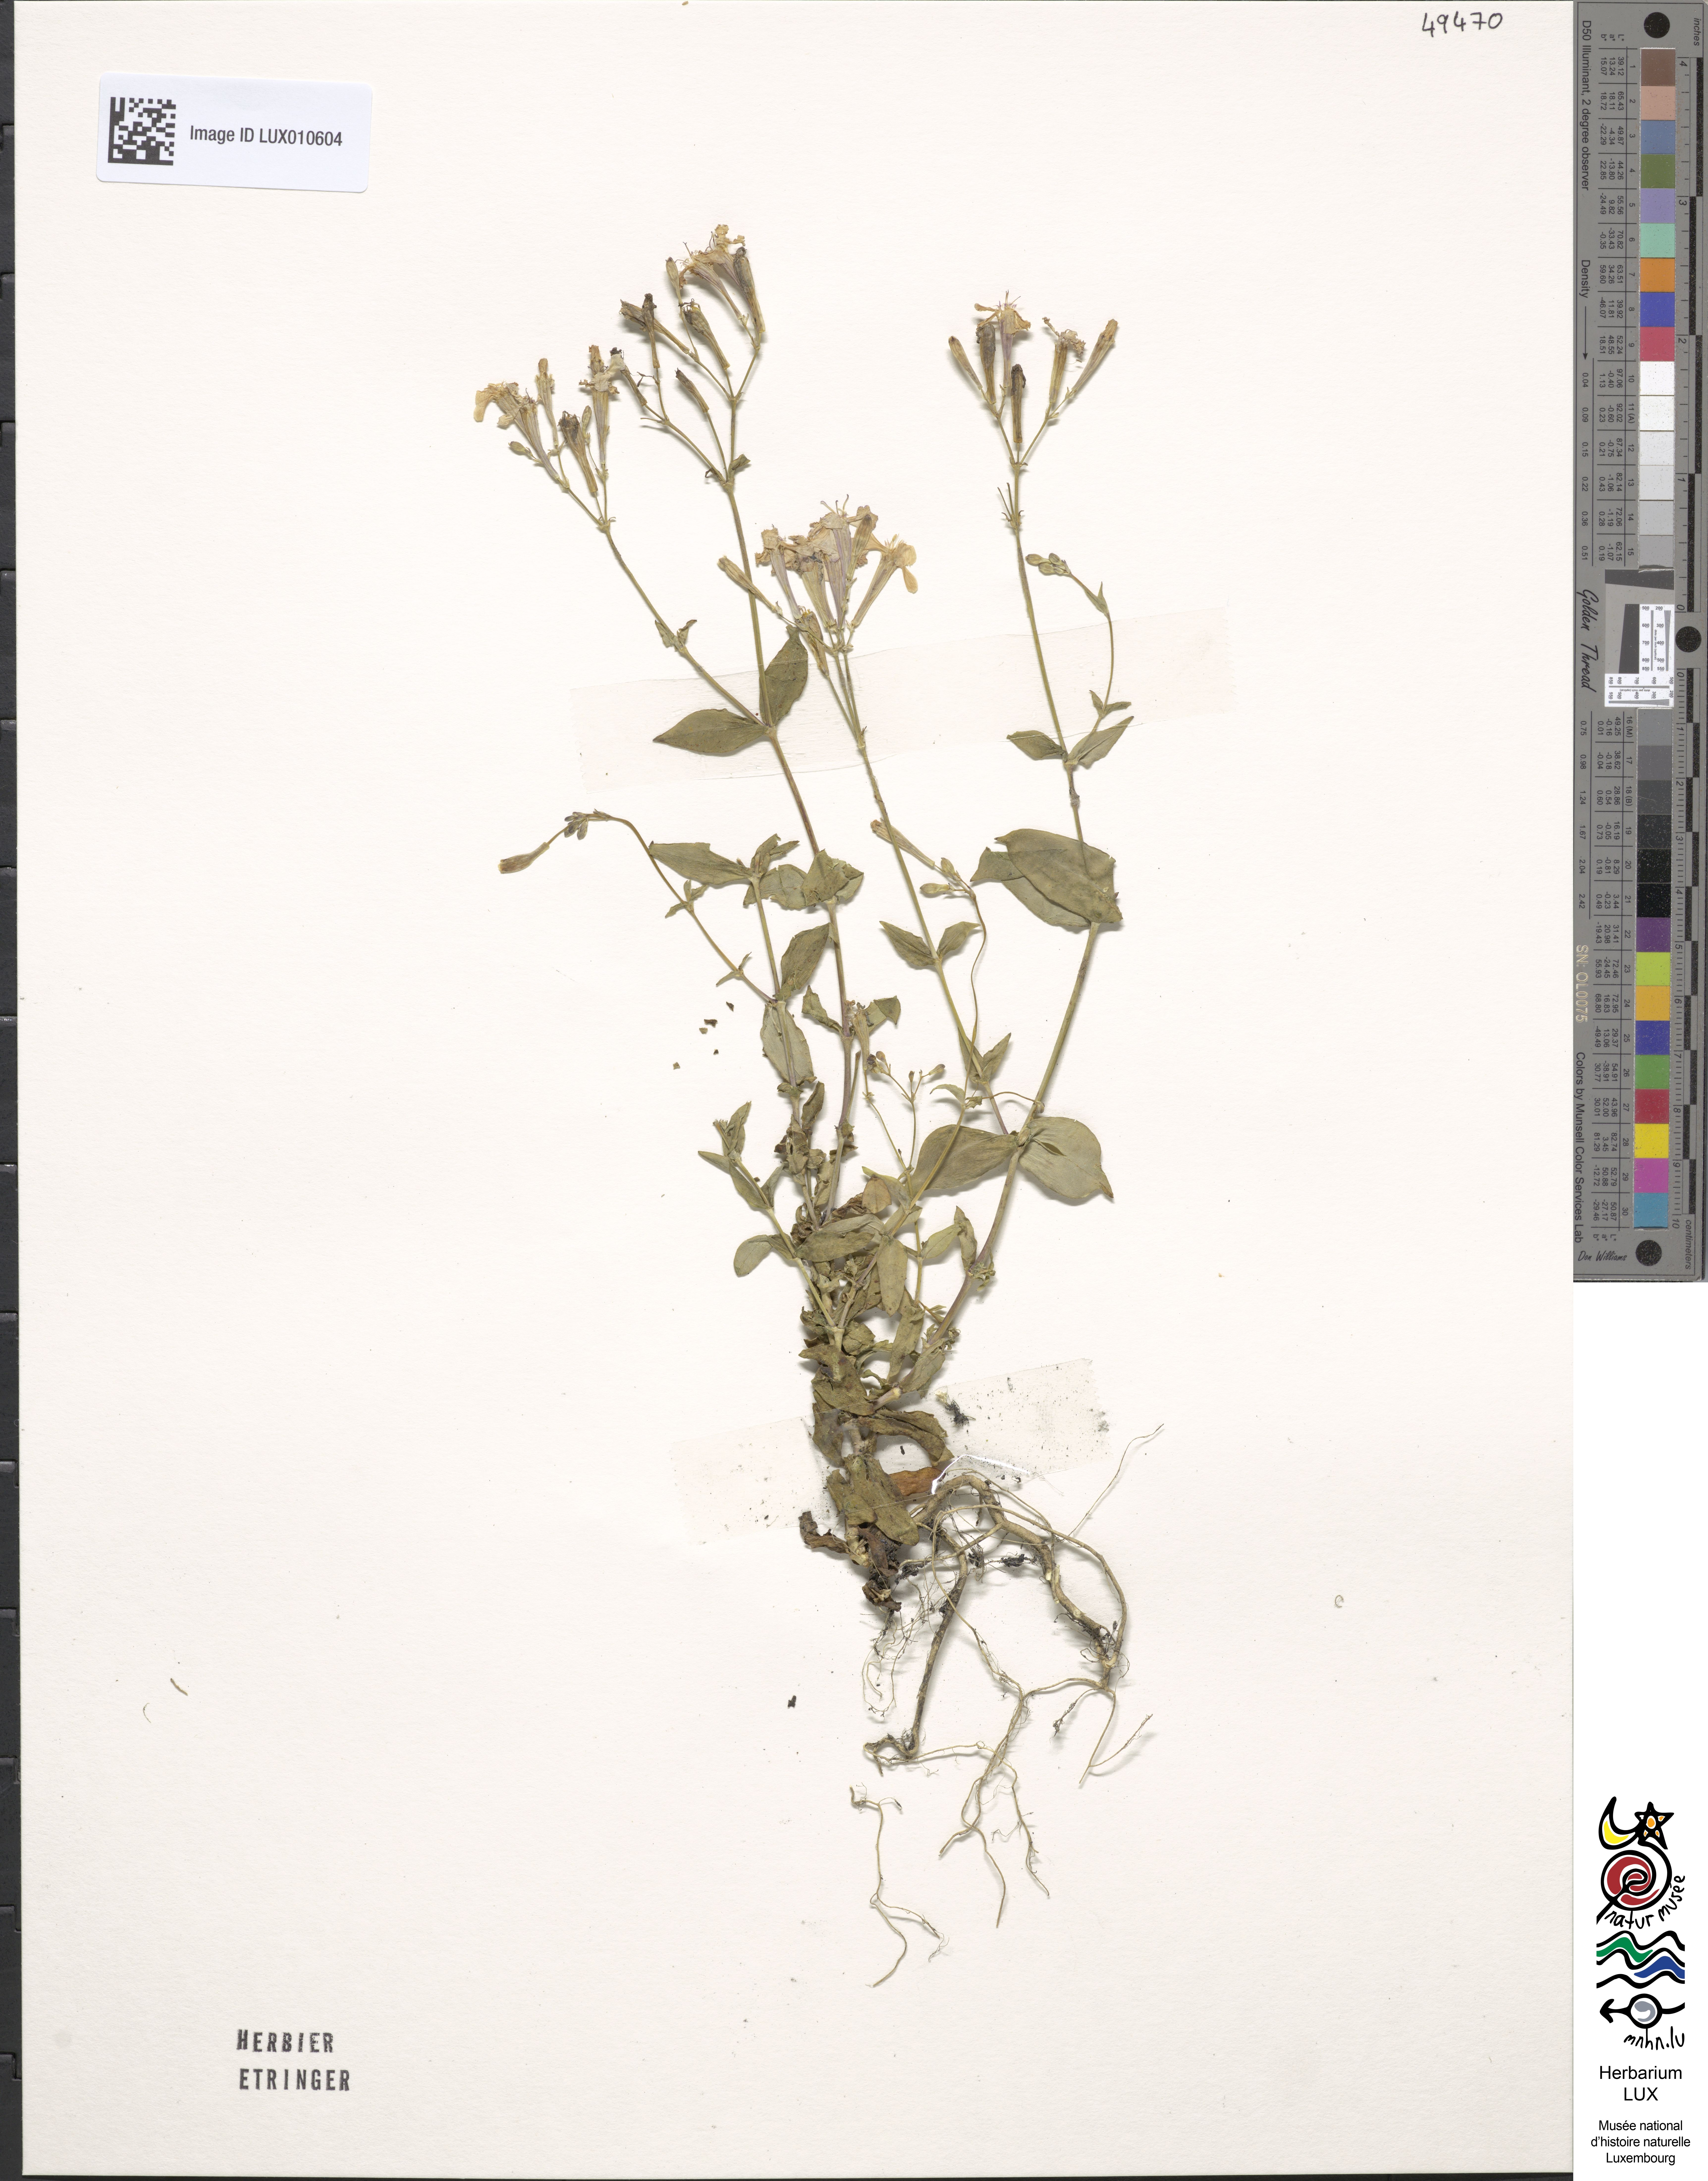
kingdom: Plantae
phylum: Tracheophyta
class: Magnoliopsida
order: Caryophyllales
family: Caryophyllaceae
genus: Atocion
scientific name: Atocion armeria
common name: Sweet william catchfly
